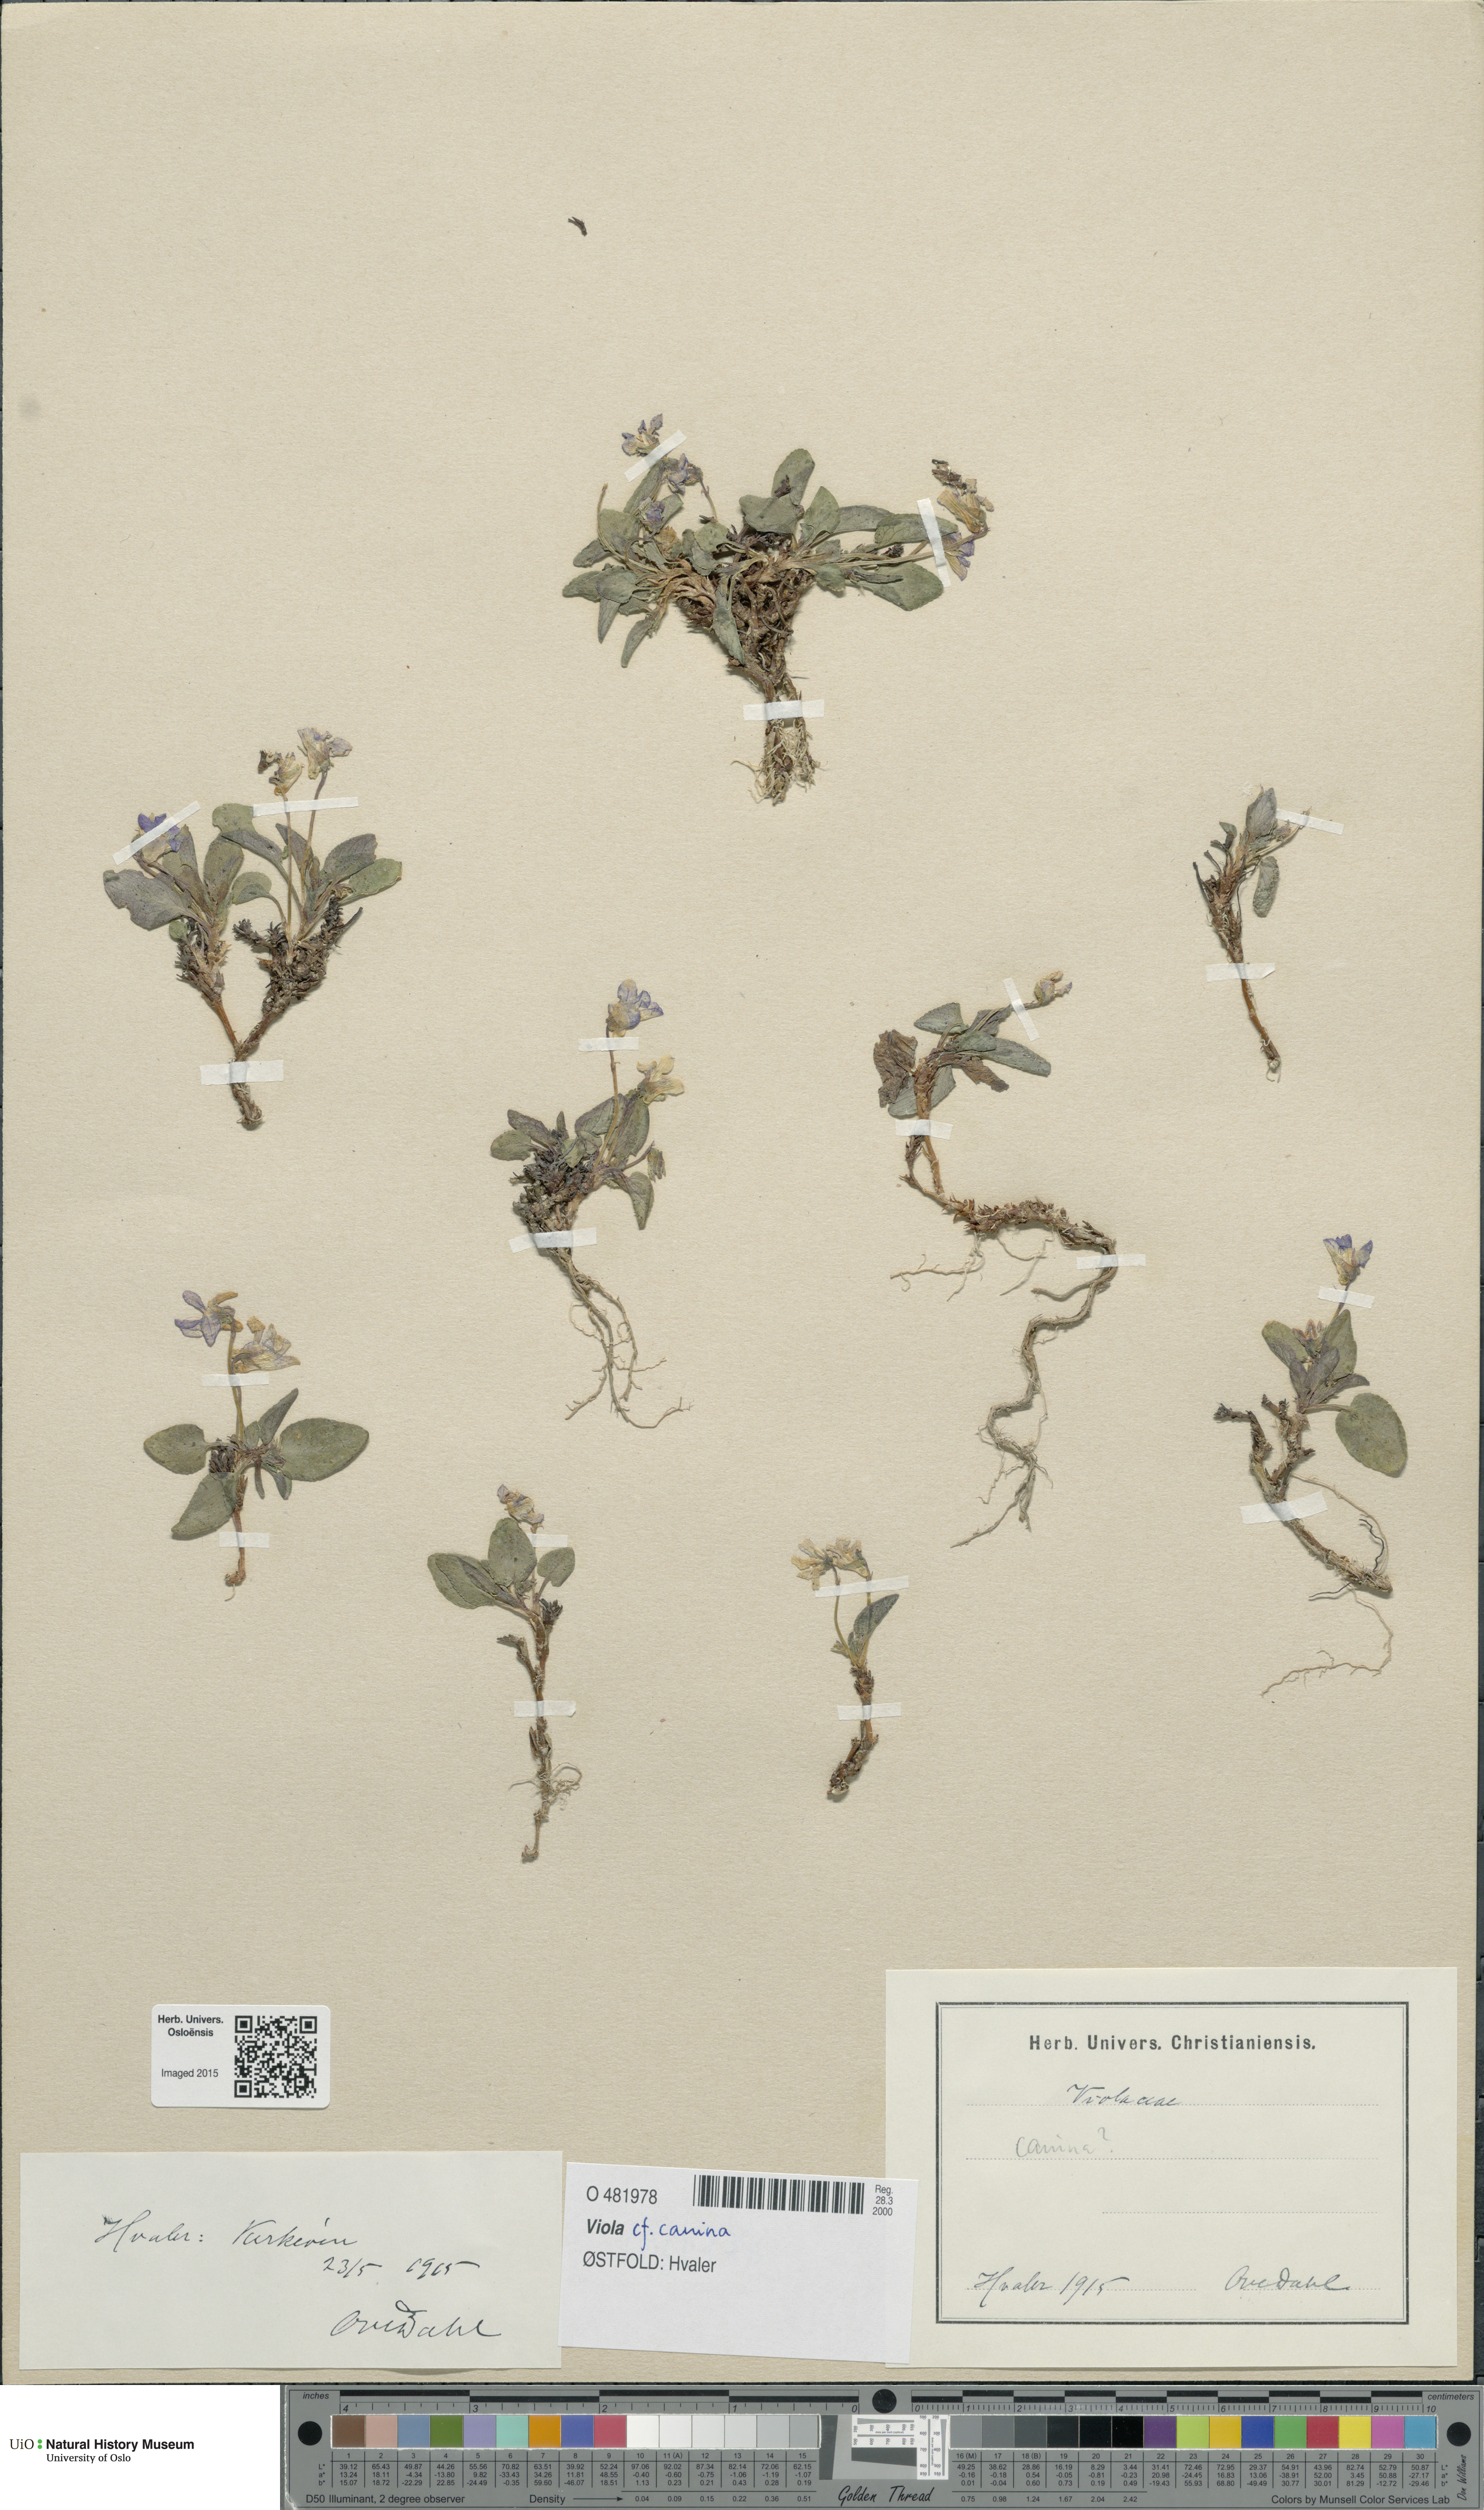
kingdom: Plantae
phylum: Tracheophyta
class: Magnoliopsida
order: Malpighiales
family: Violaceae
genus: Viola
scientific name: Viola canina
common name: Heath dog-violet
